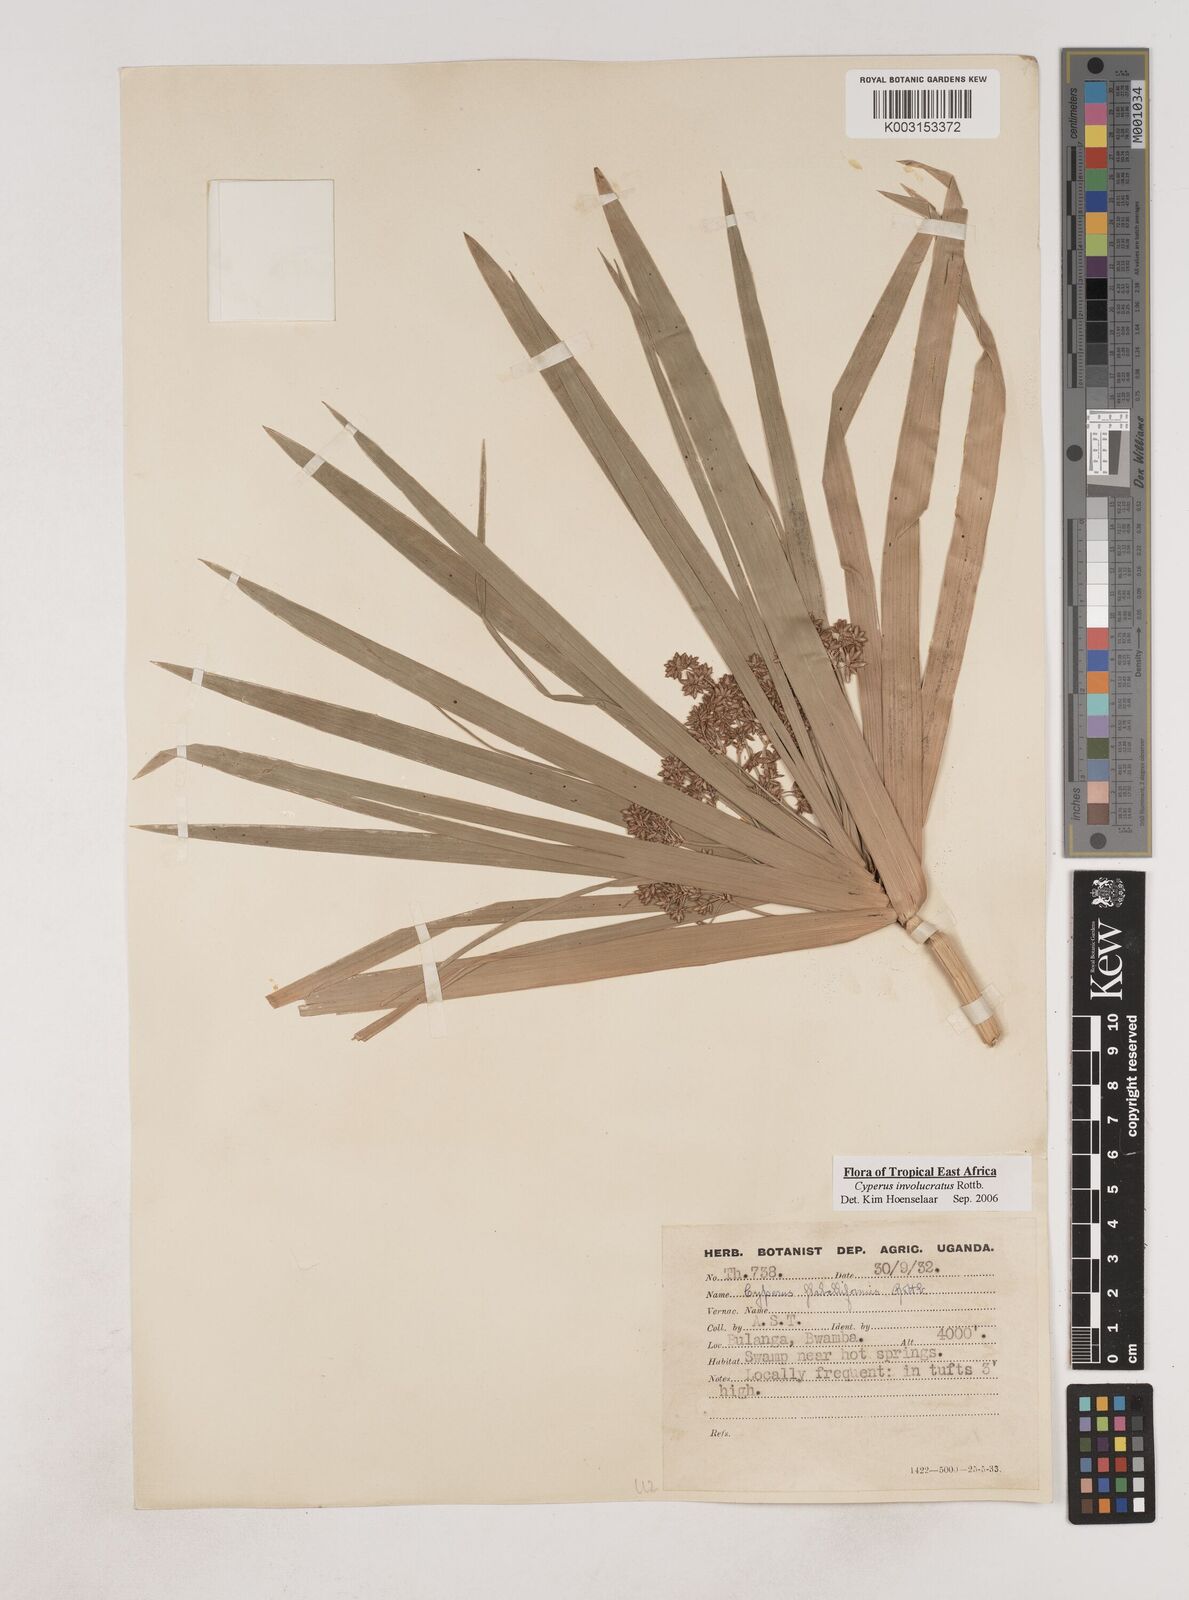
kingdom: Plantae
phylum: Tracheophyta
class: Liliopsida
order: Poales
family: Cyperaceae
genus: Cyperus
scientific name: Cyperus alternifolius
